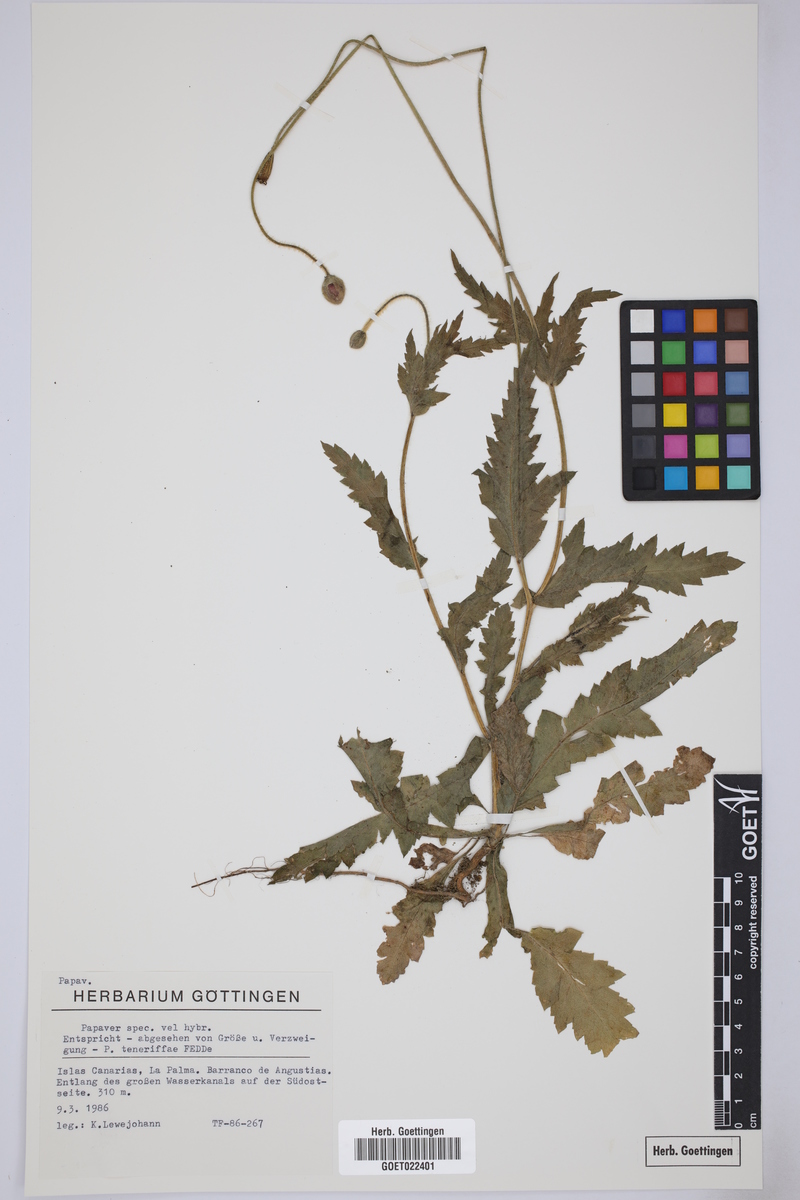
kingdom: Plantae
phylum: Tracheophyta
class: Magnoliopsida
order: Ranunculales
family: Papaveraceae
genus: Papaver
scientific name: Papaver
